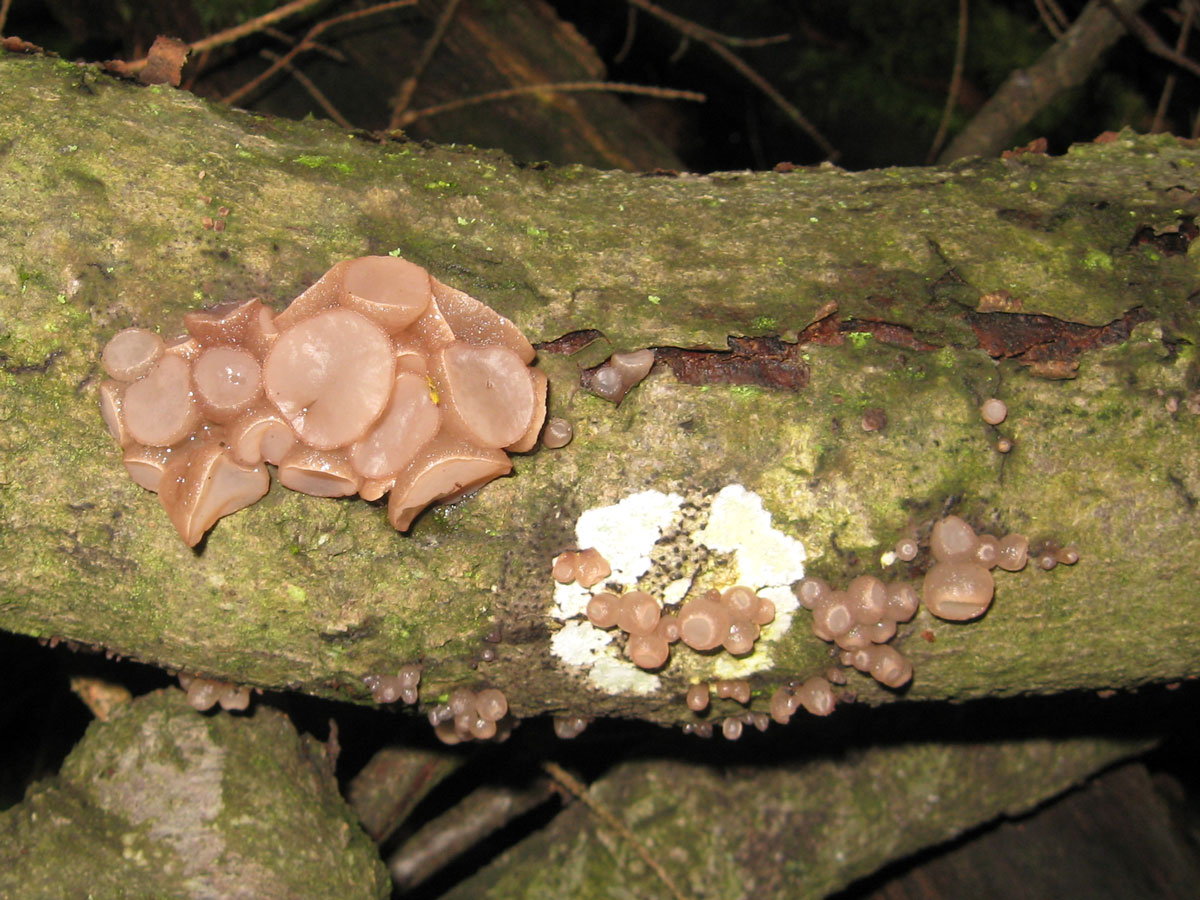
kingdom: Fungi
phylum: Ascomycota
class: Leotiomycetes
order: Helotiales
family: Gelatinodiscaceae
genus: Neobulgaria
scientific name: Neobulgaria pura
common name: bleg bævreskive
